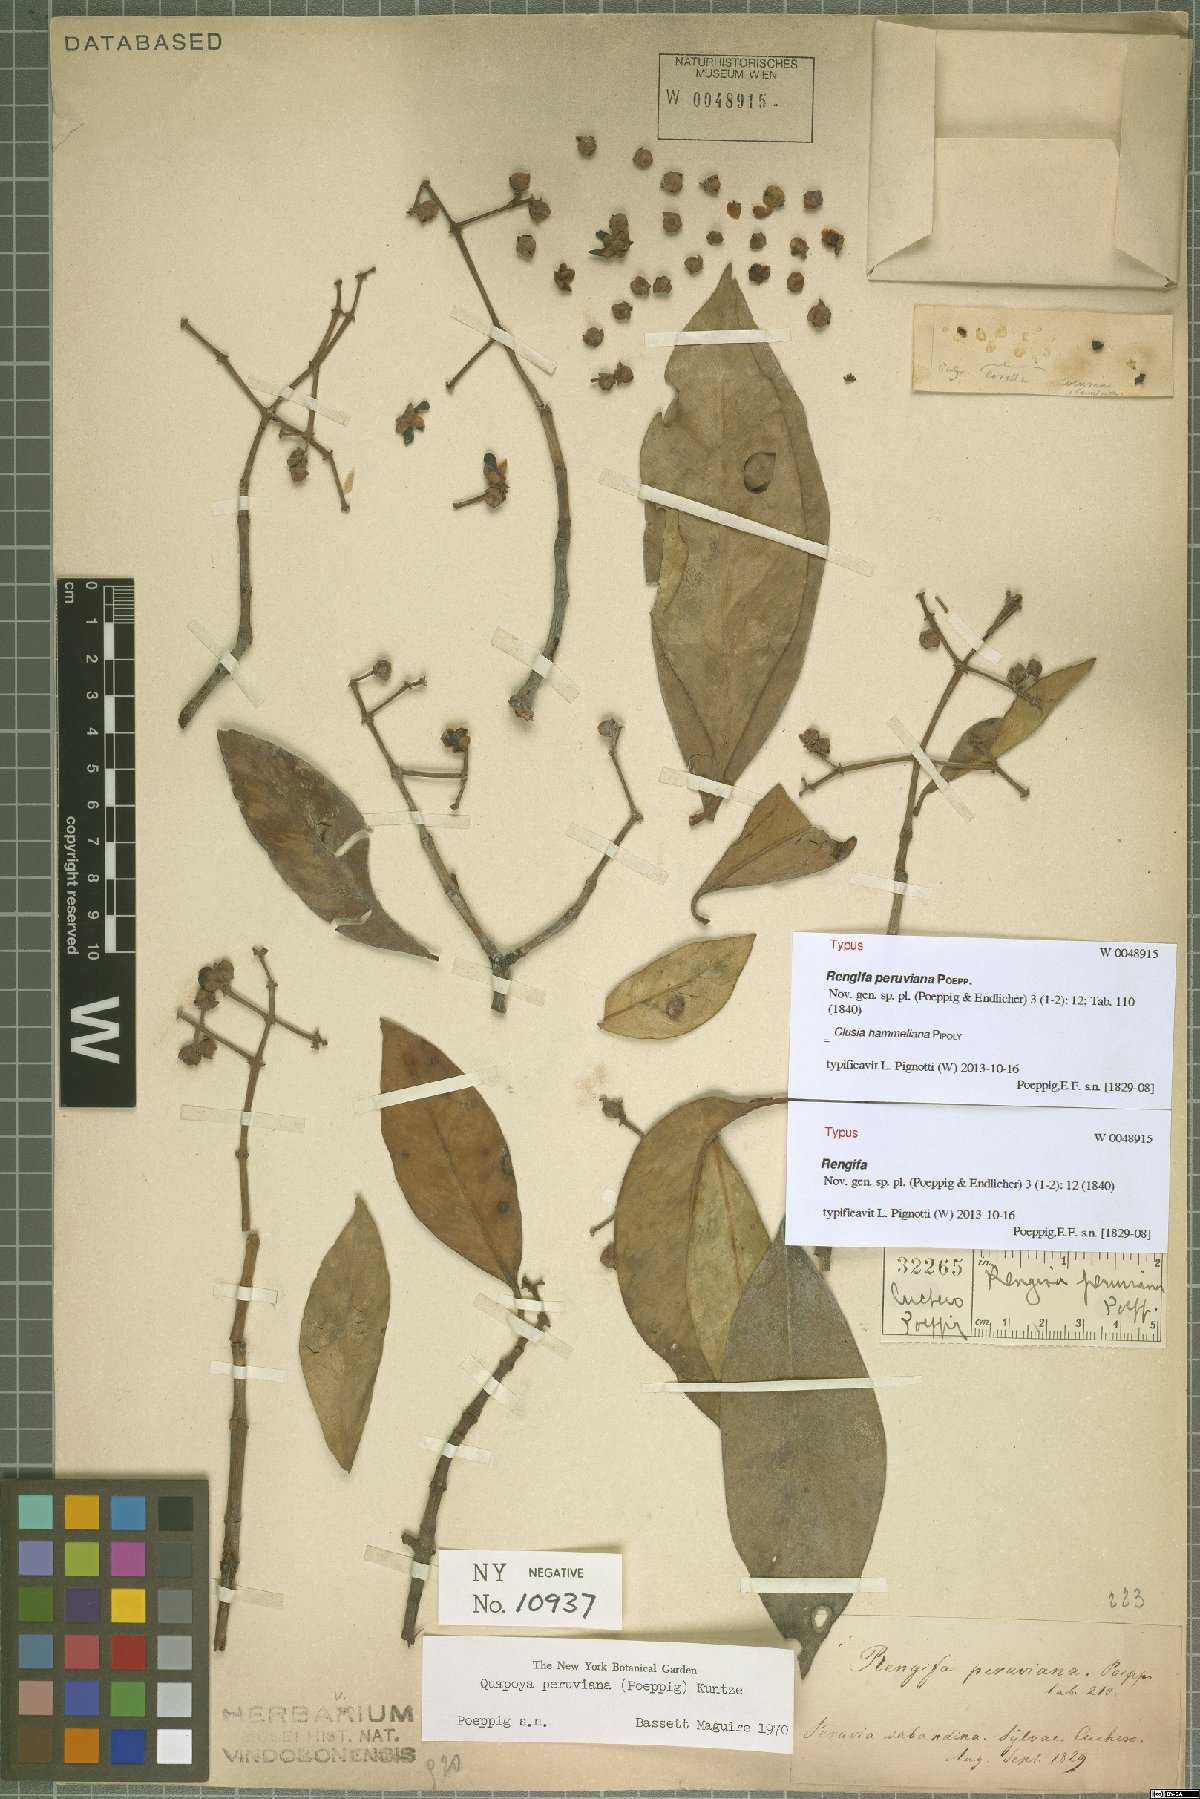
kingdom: Plantae
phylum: Tracheophyta
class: Magnoliopsida
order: Malpighiales
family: Clusiaceae
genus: Clusia
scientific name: Clusia hammeliana
